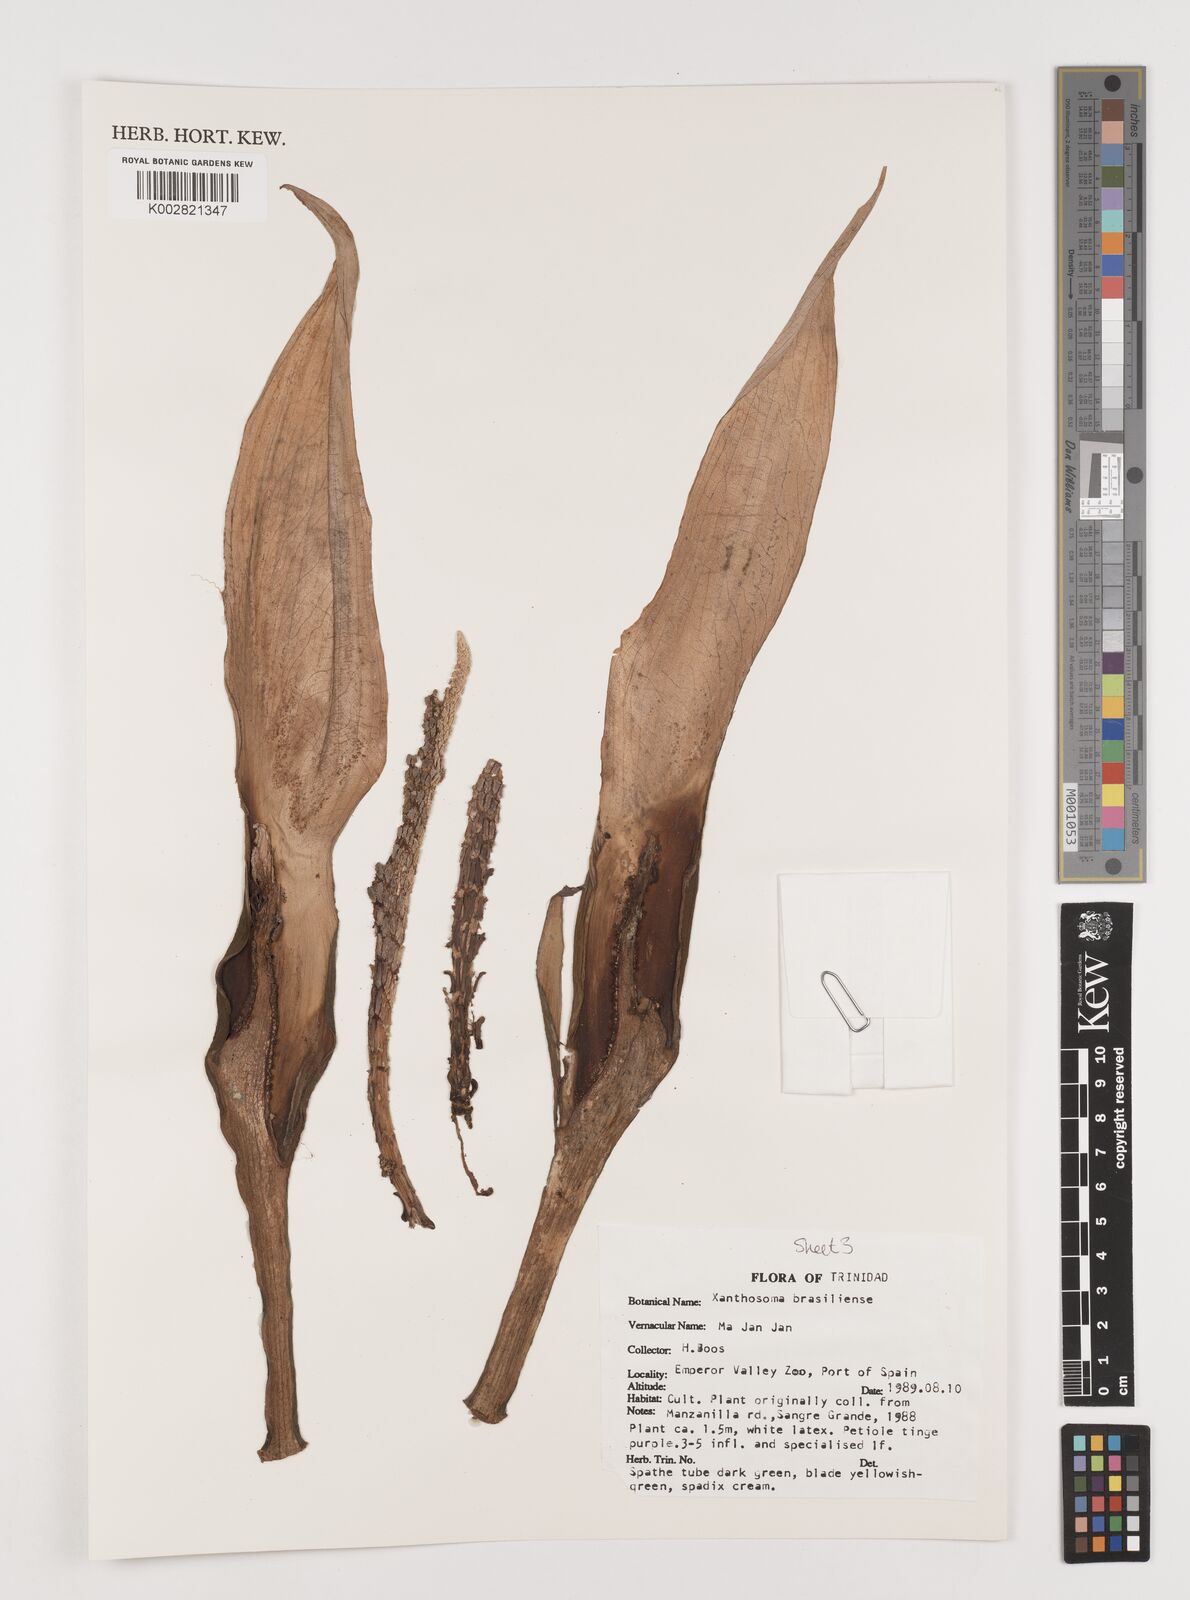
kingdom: Plantae
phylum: Tracheophyta
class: Liliopsida
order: Alismatales
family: Araceae
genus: Xanthosoma
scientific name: Xanthosoma brasiliense
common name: Tahitian-spinach
